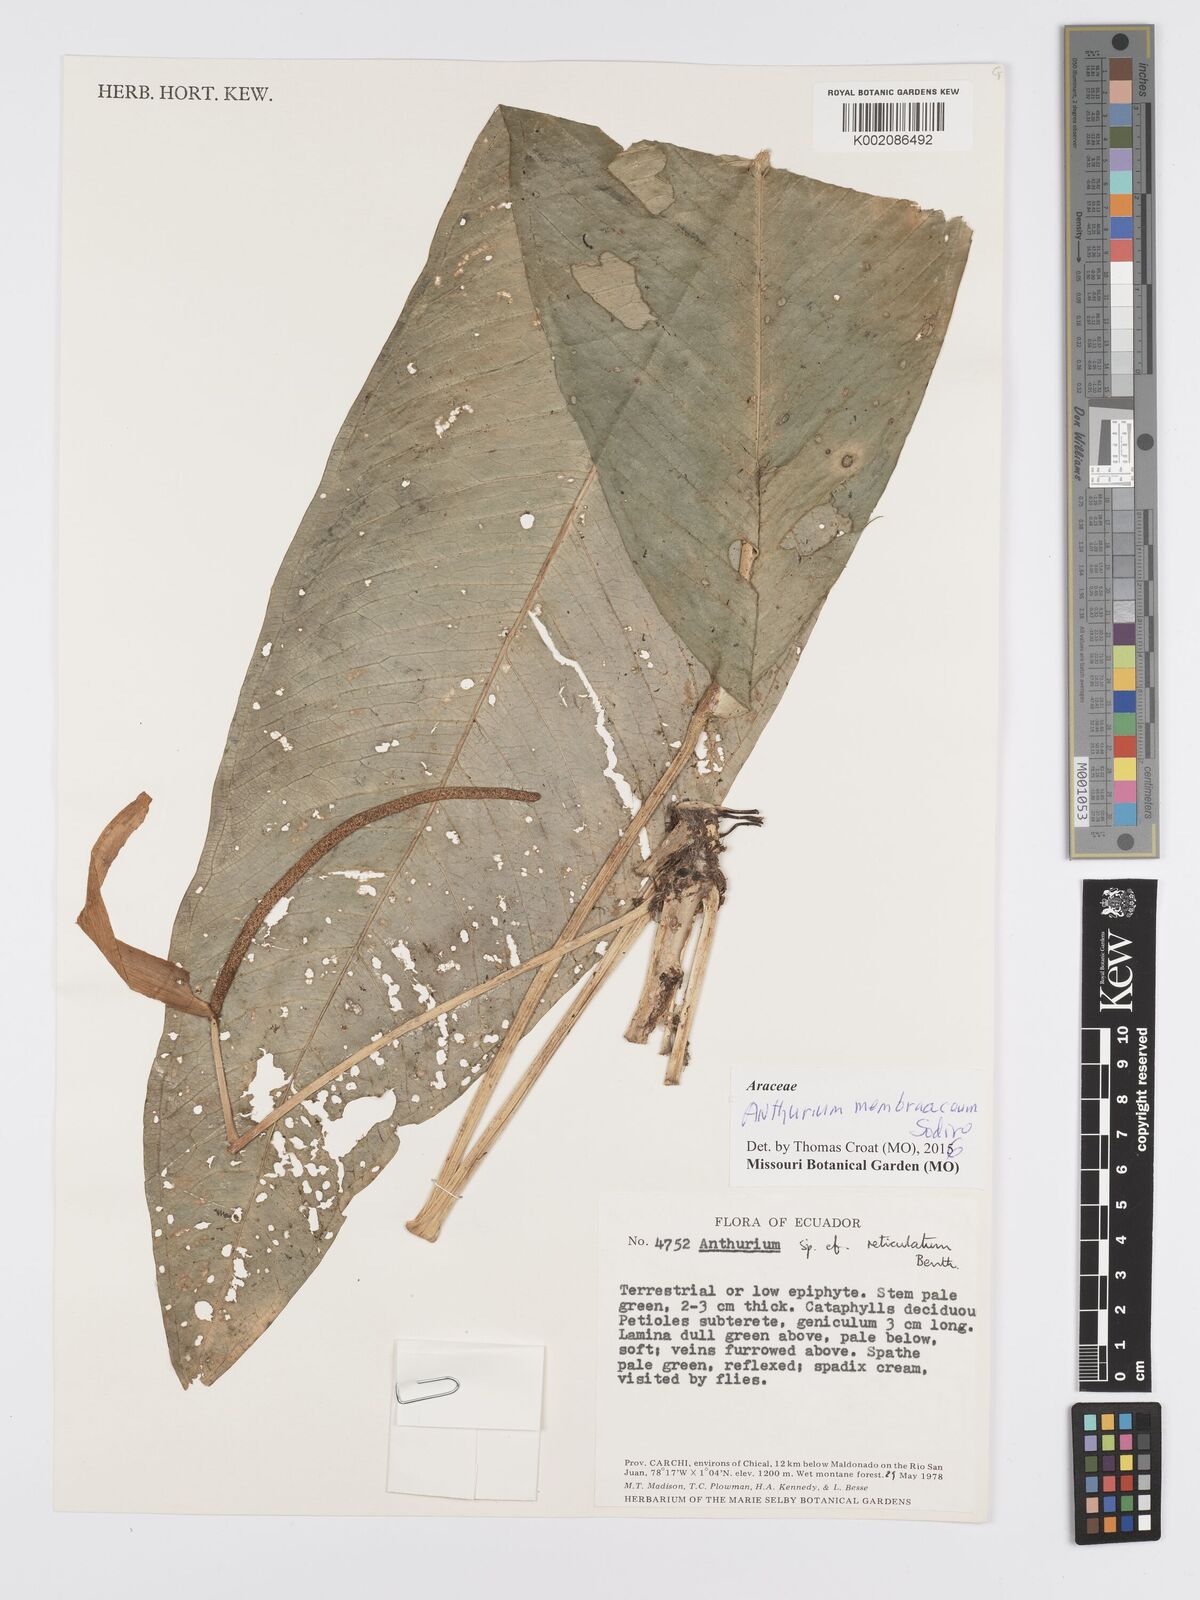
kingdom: Plantae
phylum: Tracheophyta
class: Liliopsida
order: Alismatales
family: Araceae
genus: Anthurium
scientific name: Anthurium membranaceum
